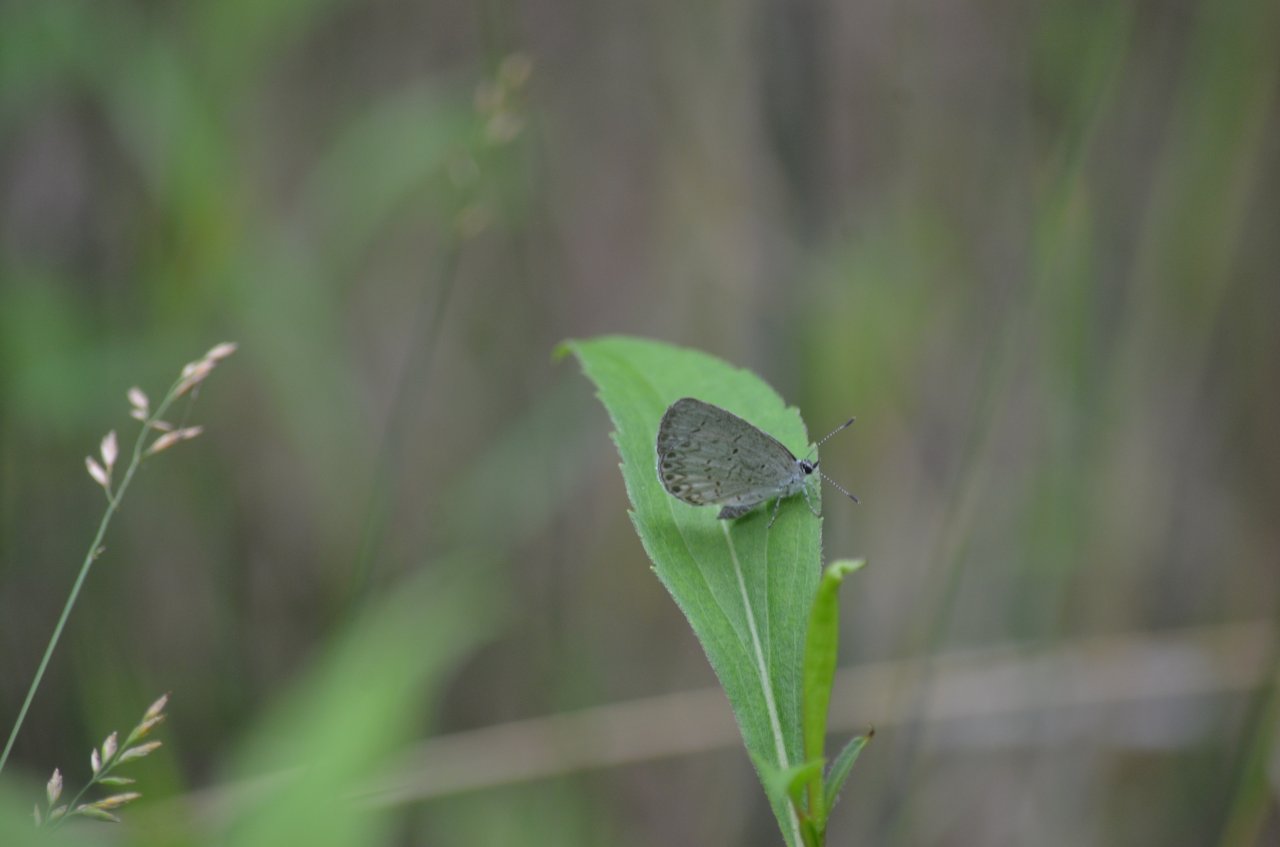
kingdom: Animalia
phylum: Arthropoda
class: Insecta
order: Lepidoptera
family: Lycaenidae
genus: Celastrina
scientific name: Celastrina
